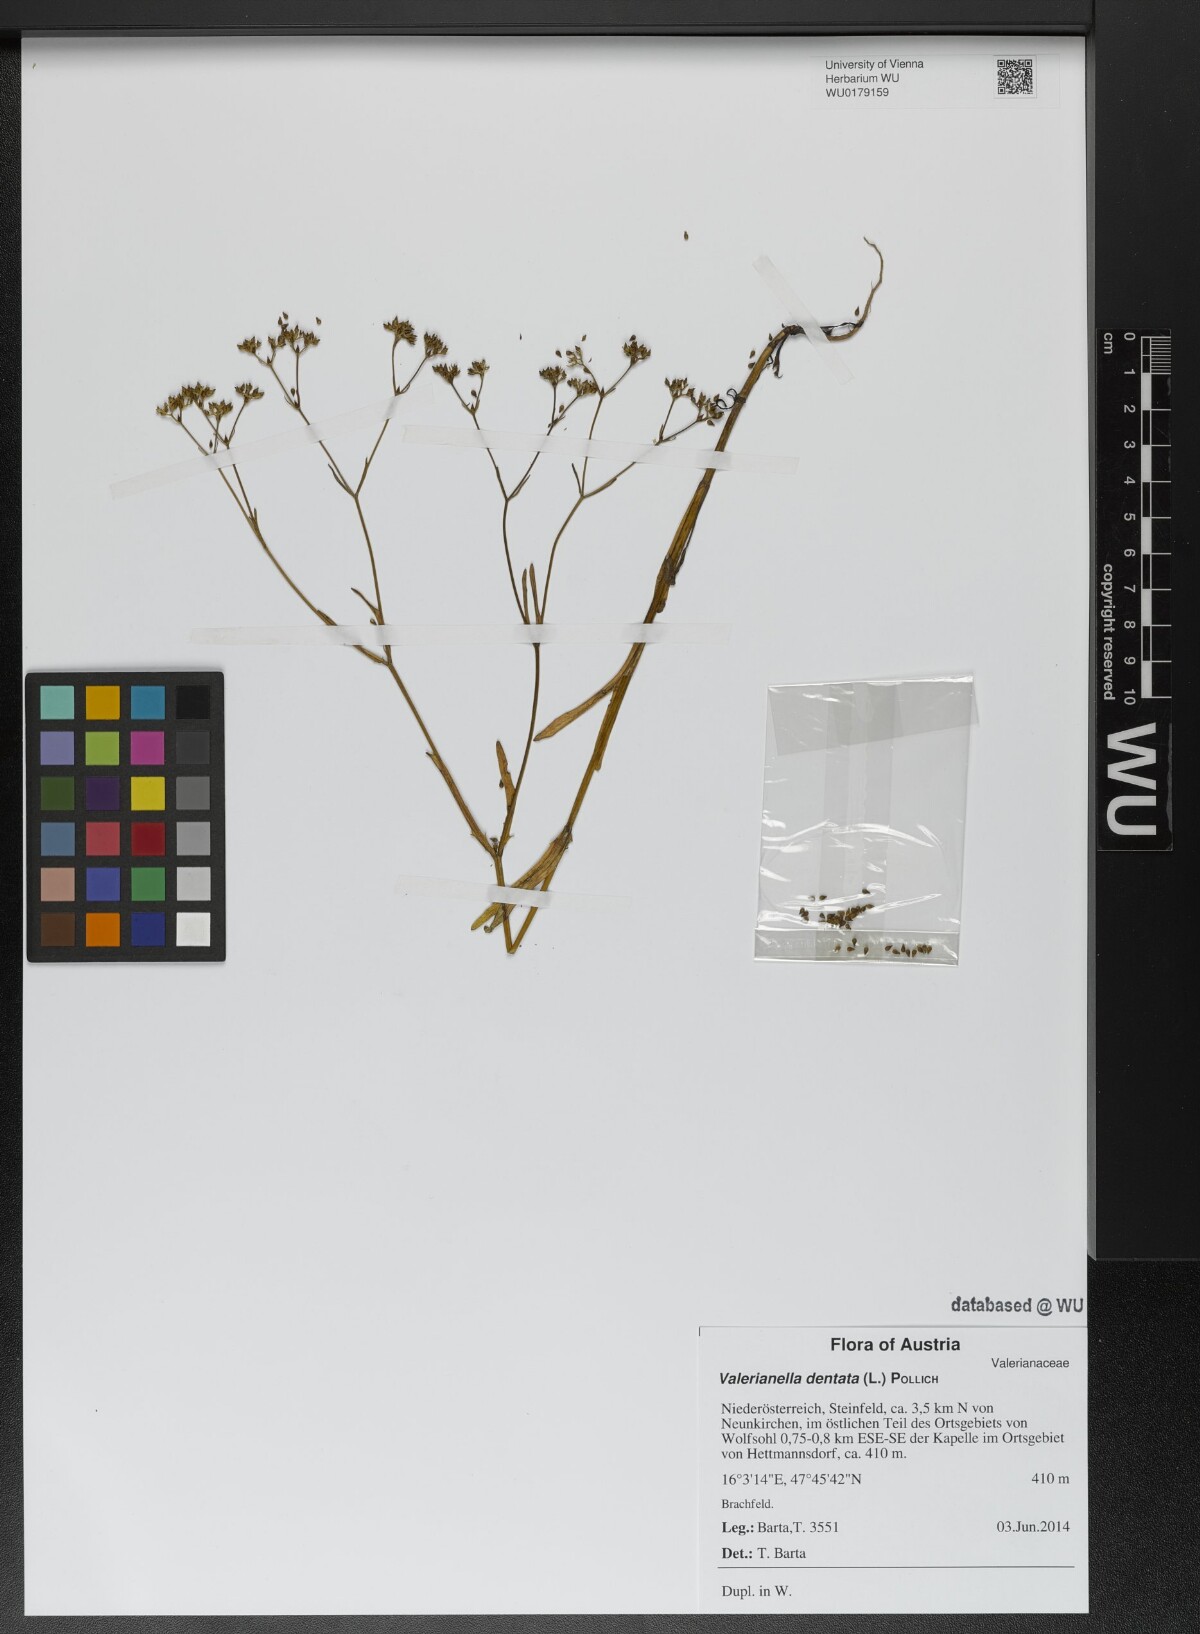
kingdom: Plantae
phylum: Tracheophyta
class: Magnoliopsida
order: Dipsacales
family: Caprifoliaceae
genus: Valerianella
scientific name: Valerianella dentata
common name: Narrow-fruited cornsalad
